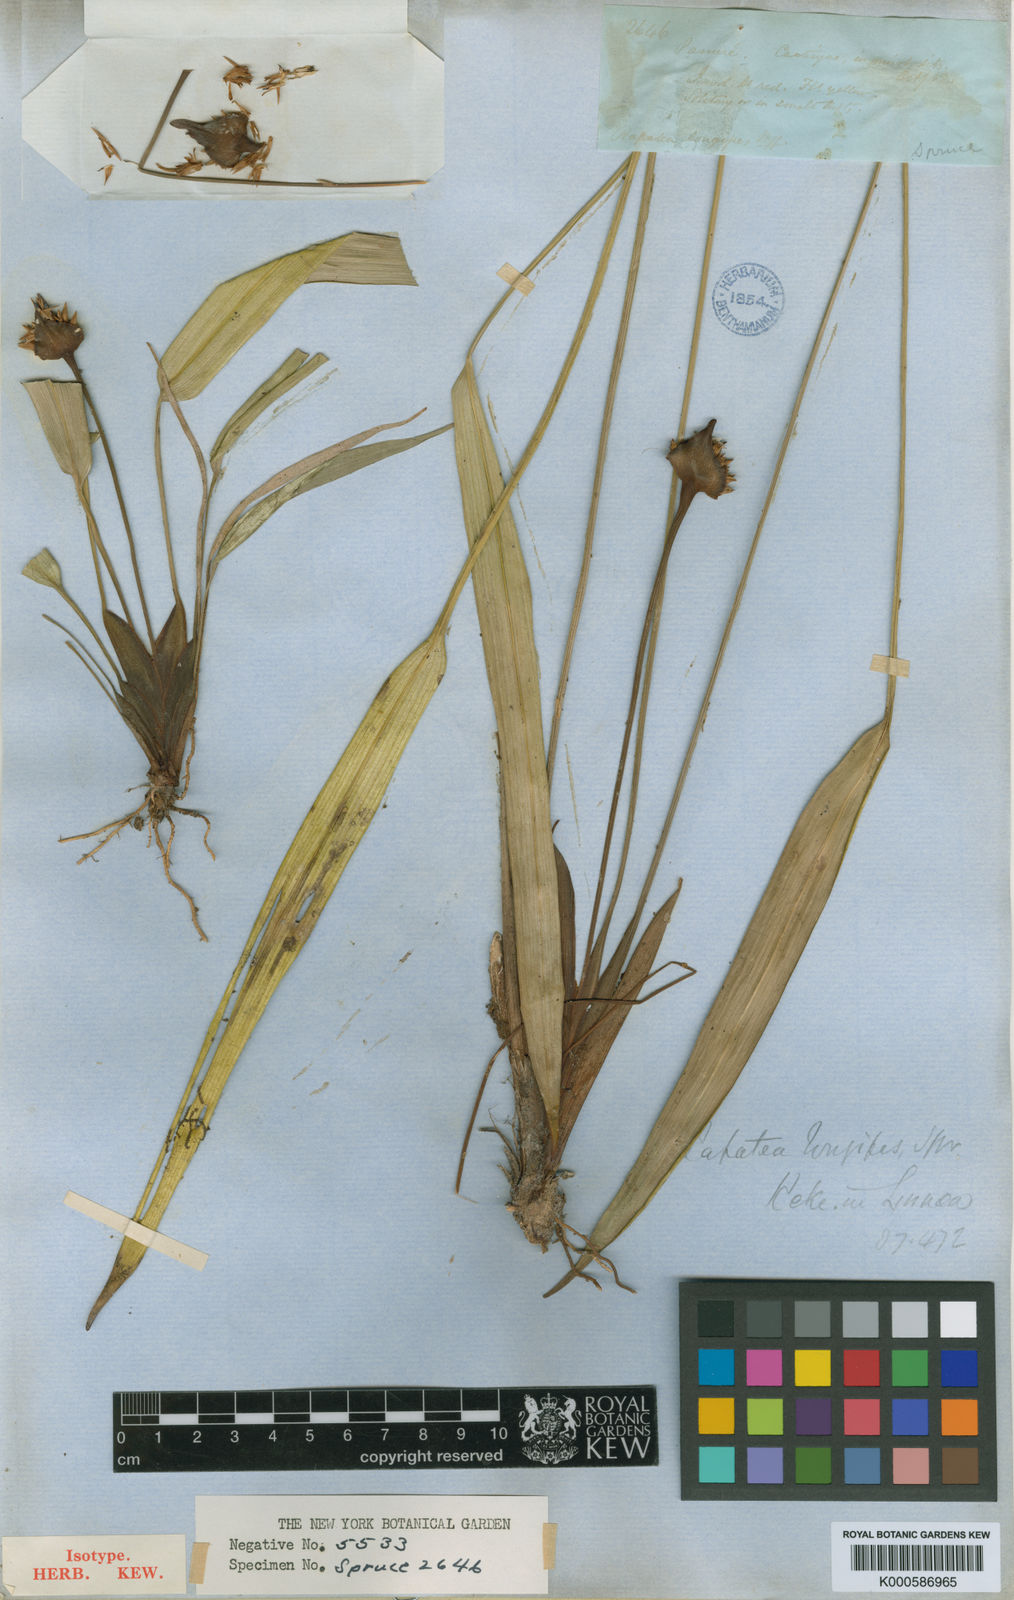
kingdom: Plantae
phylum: Tracheophyta
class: Liliopsida
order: Poales
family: Rapateaceae
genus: Rapatea
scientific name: Rapatea
